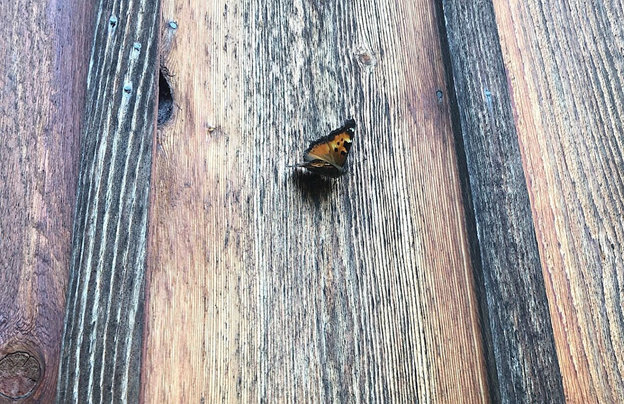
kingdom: Animalia
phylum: Arthropoda
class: Insecta
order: Lepidoptera
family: Nymphalidae
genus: Nymphalis
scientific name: Nymphalis californica
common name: California Tortoiseshell
